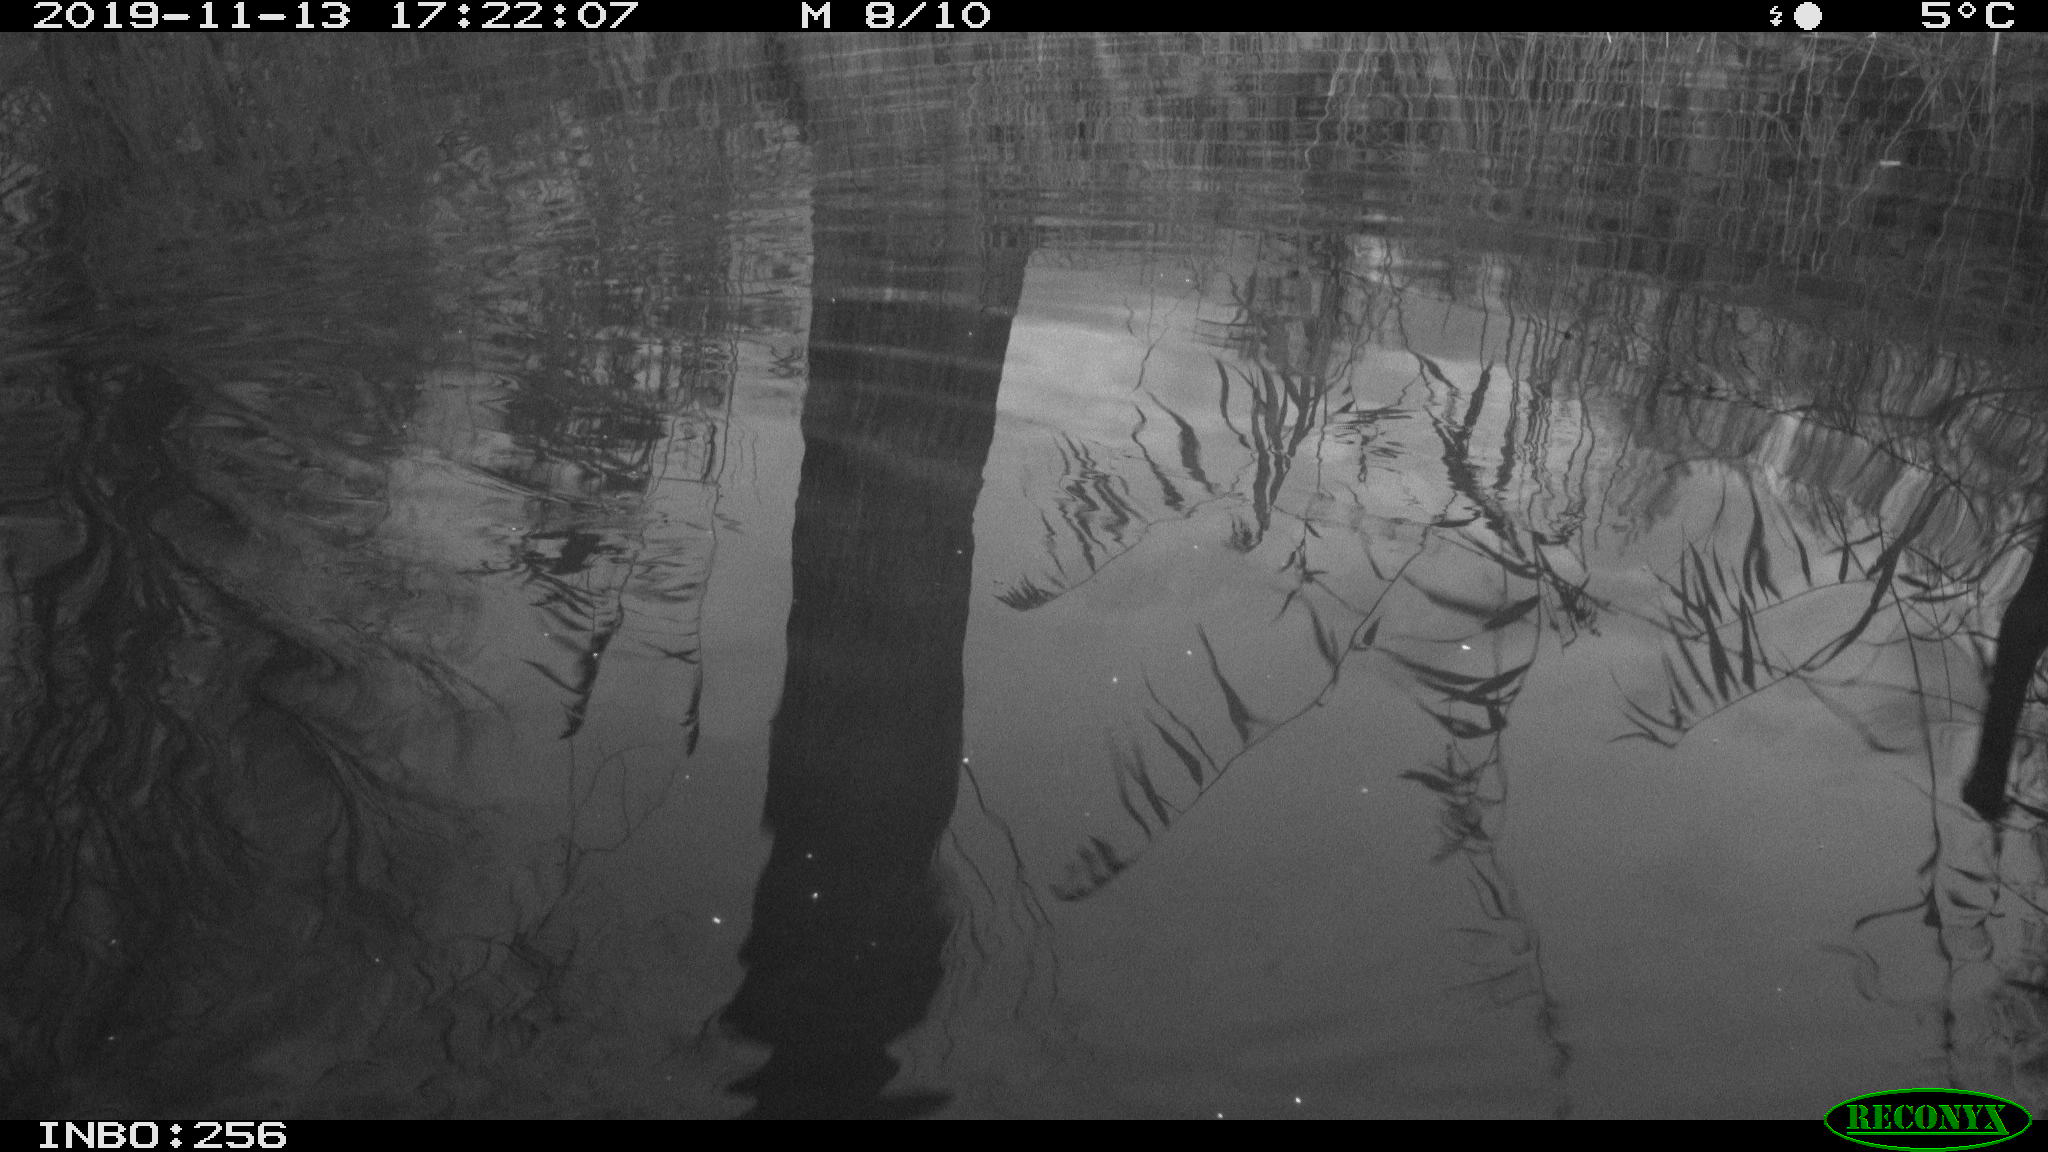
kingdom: Animalia
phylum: Chordata
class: Mammalia
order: Rodentia
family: Muridae
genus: Rattus
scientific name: Rattus norvegicus
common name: Brown rat
